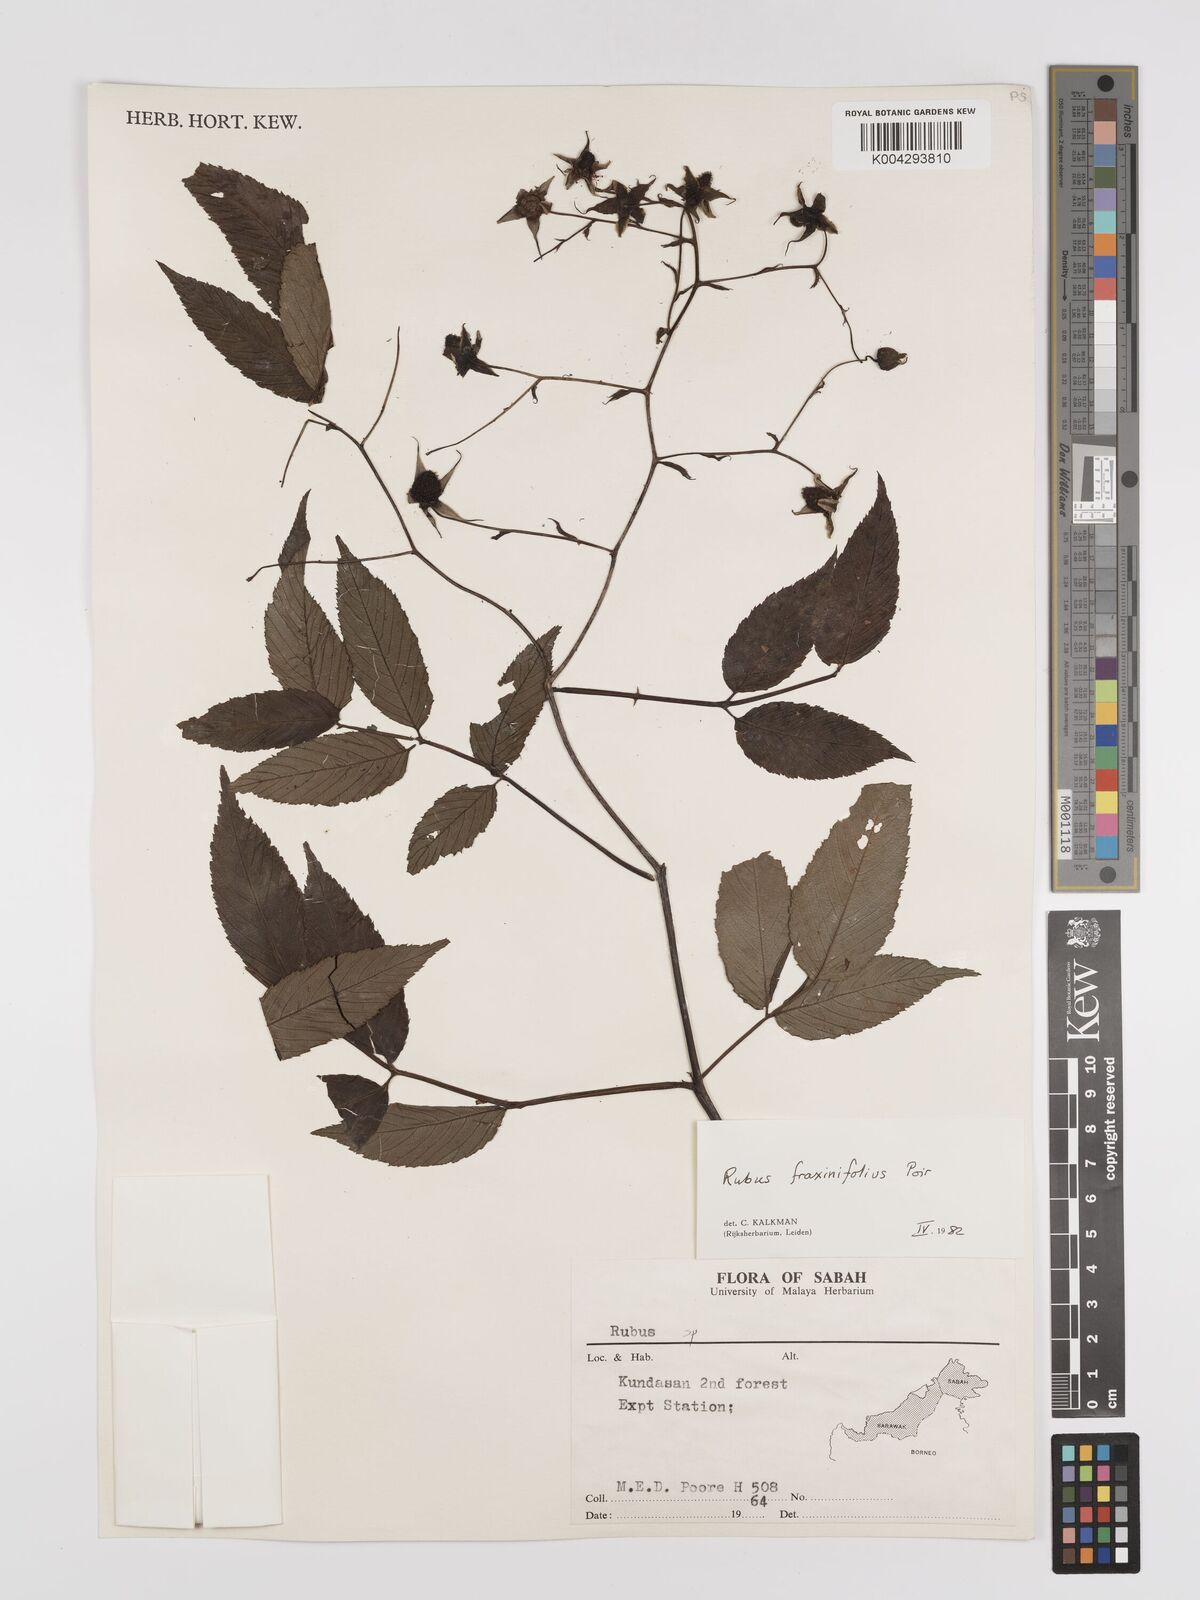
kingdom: Plantae
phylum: Tracheophyta
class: Magnoliopsida
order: Rosales
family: Rosaceae
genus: Rubus
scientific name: Rubus fraxinifolius
